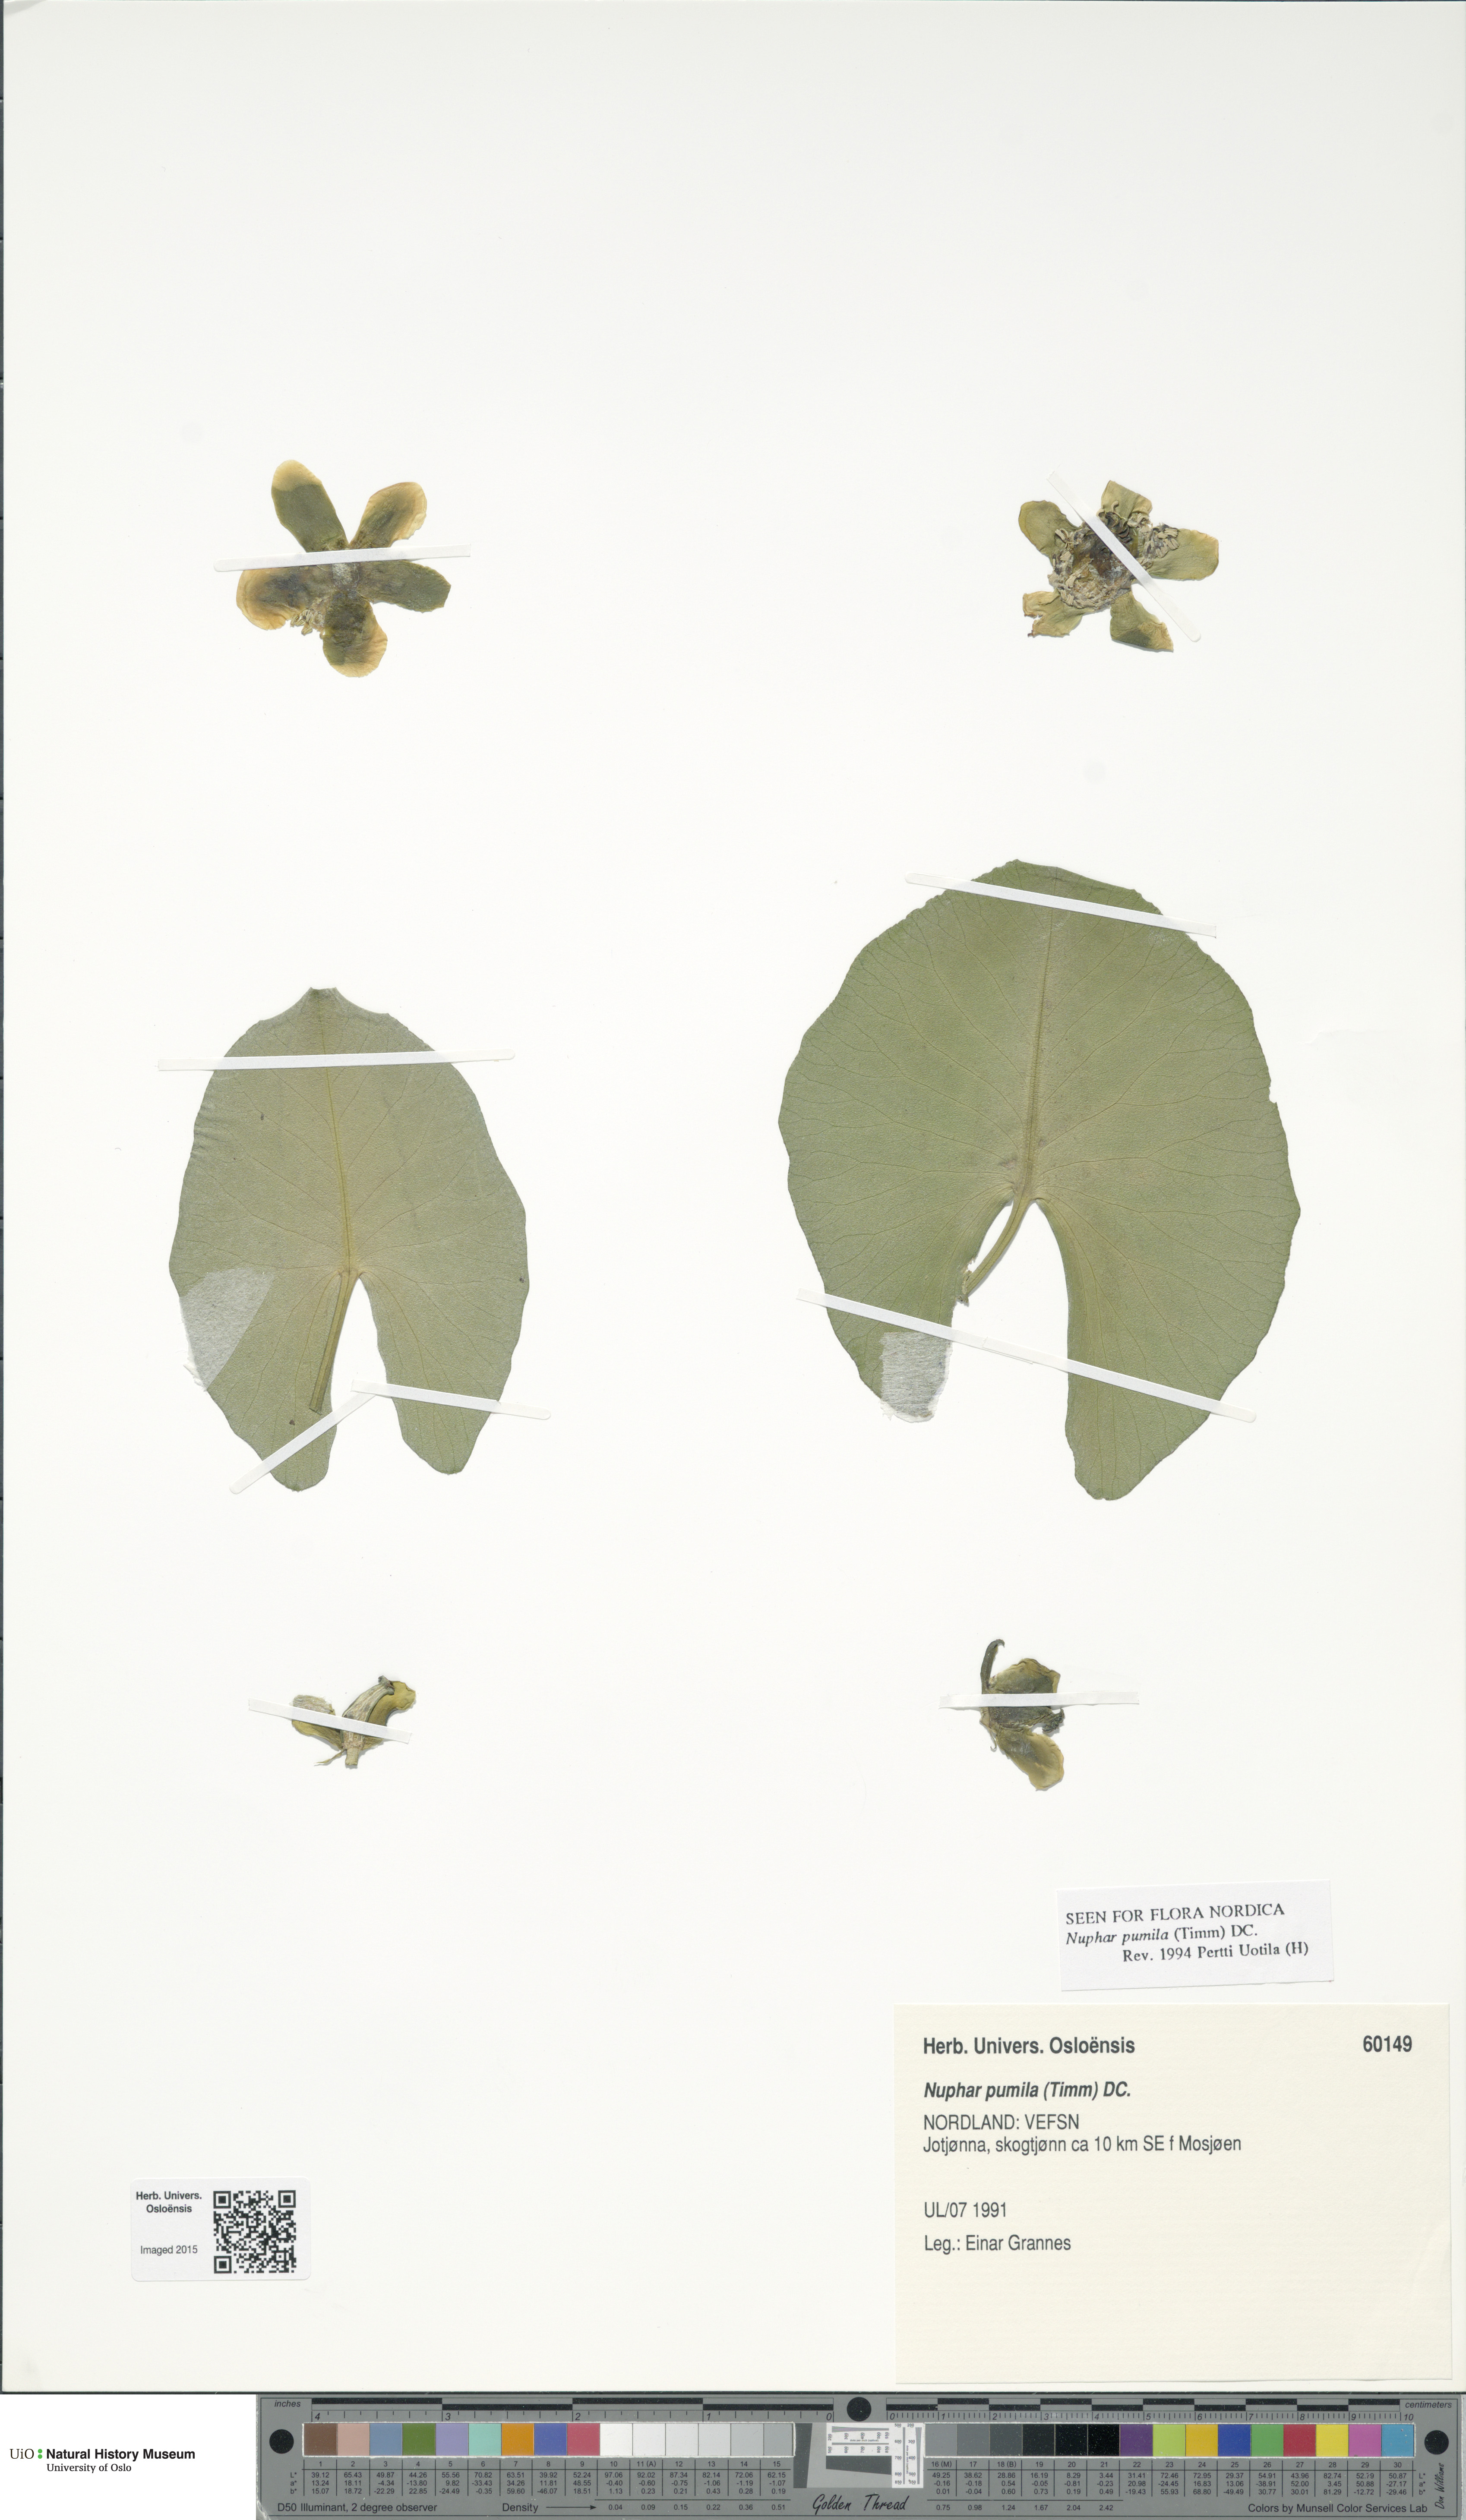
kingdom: Plantae
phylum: Tracheophyta
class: Magnoliopsida
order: Nymphaeales
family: Nymphaeaceae
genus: Nuphar
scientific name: Nuphar pumila
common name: Least water-lily
